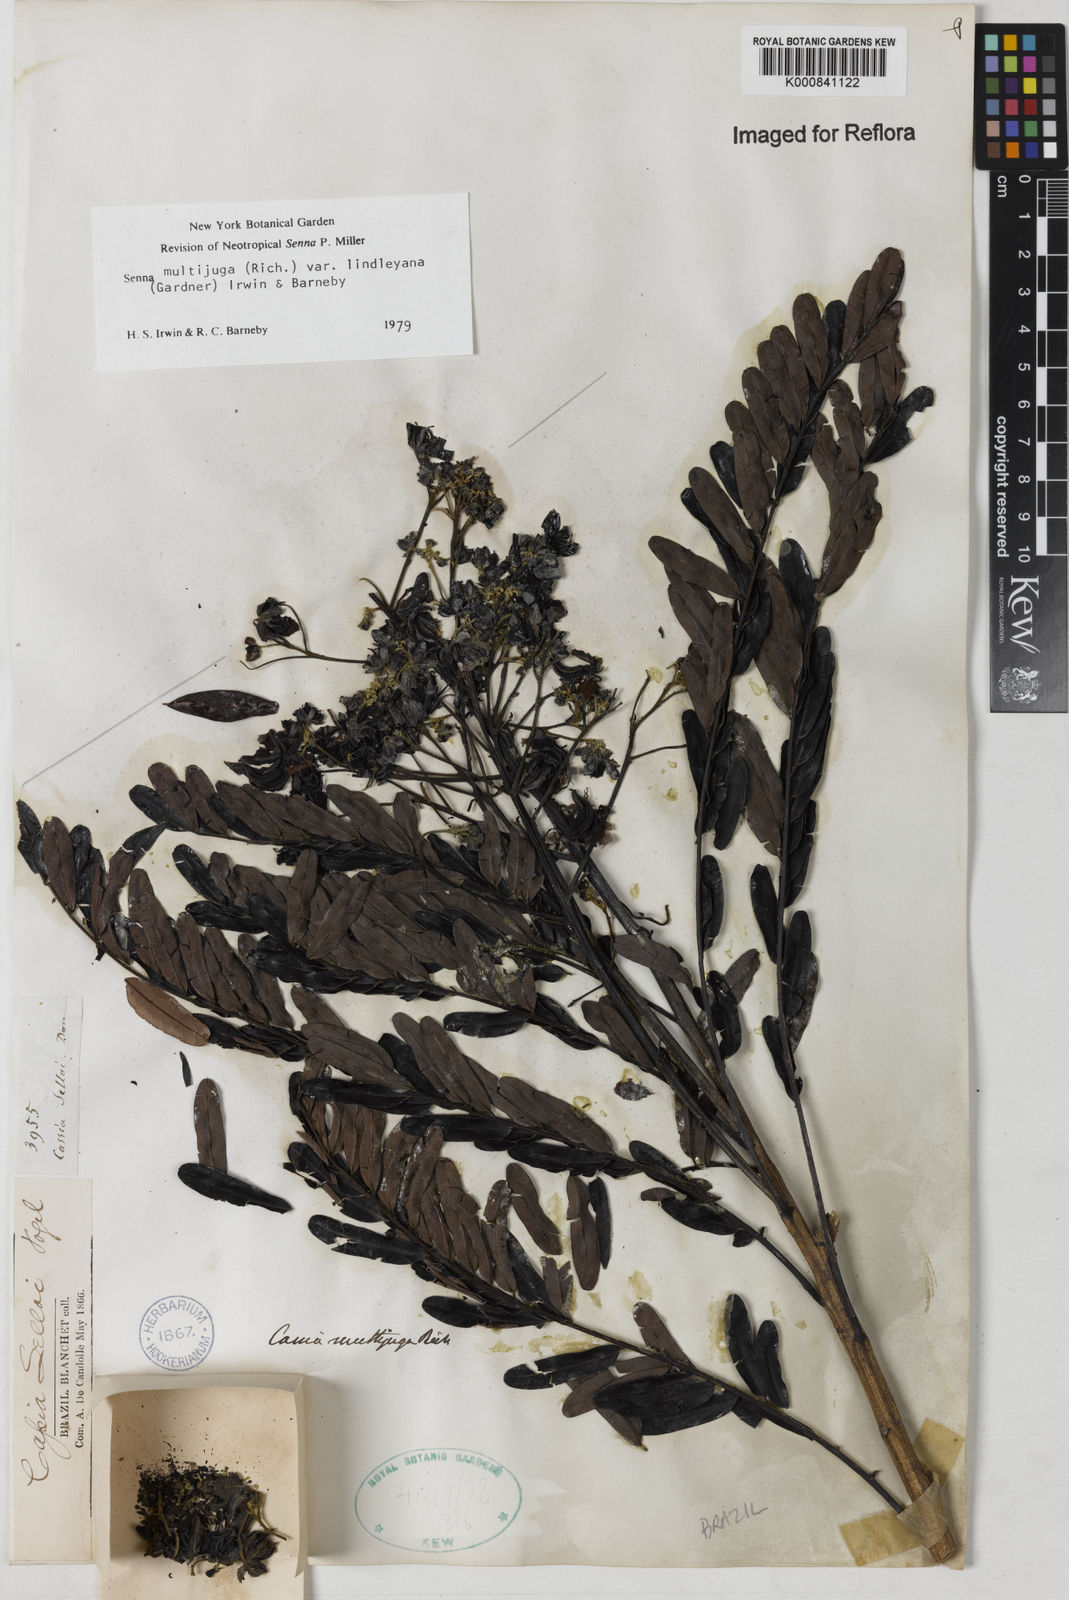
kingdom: Plantae
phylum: Tracheophyta
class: Magnoliopsida
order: Fabales
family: Fabaceae
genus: Senna
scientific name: Senna multijuga
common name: False sicklepod
